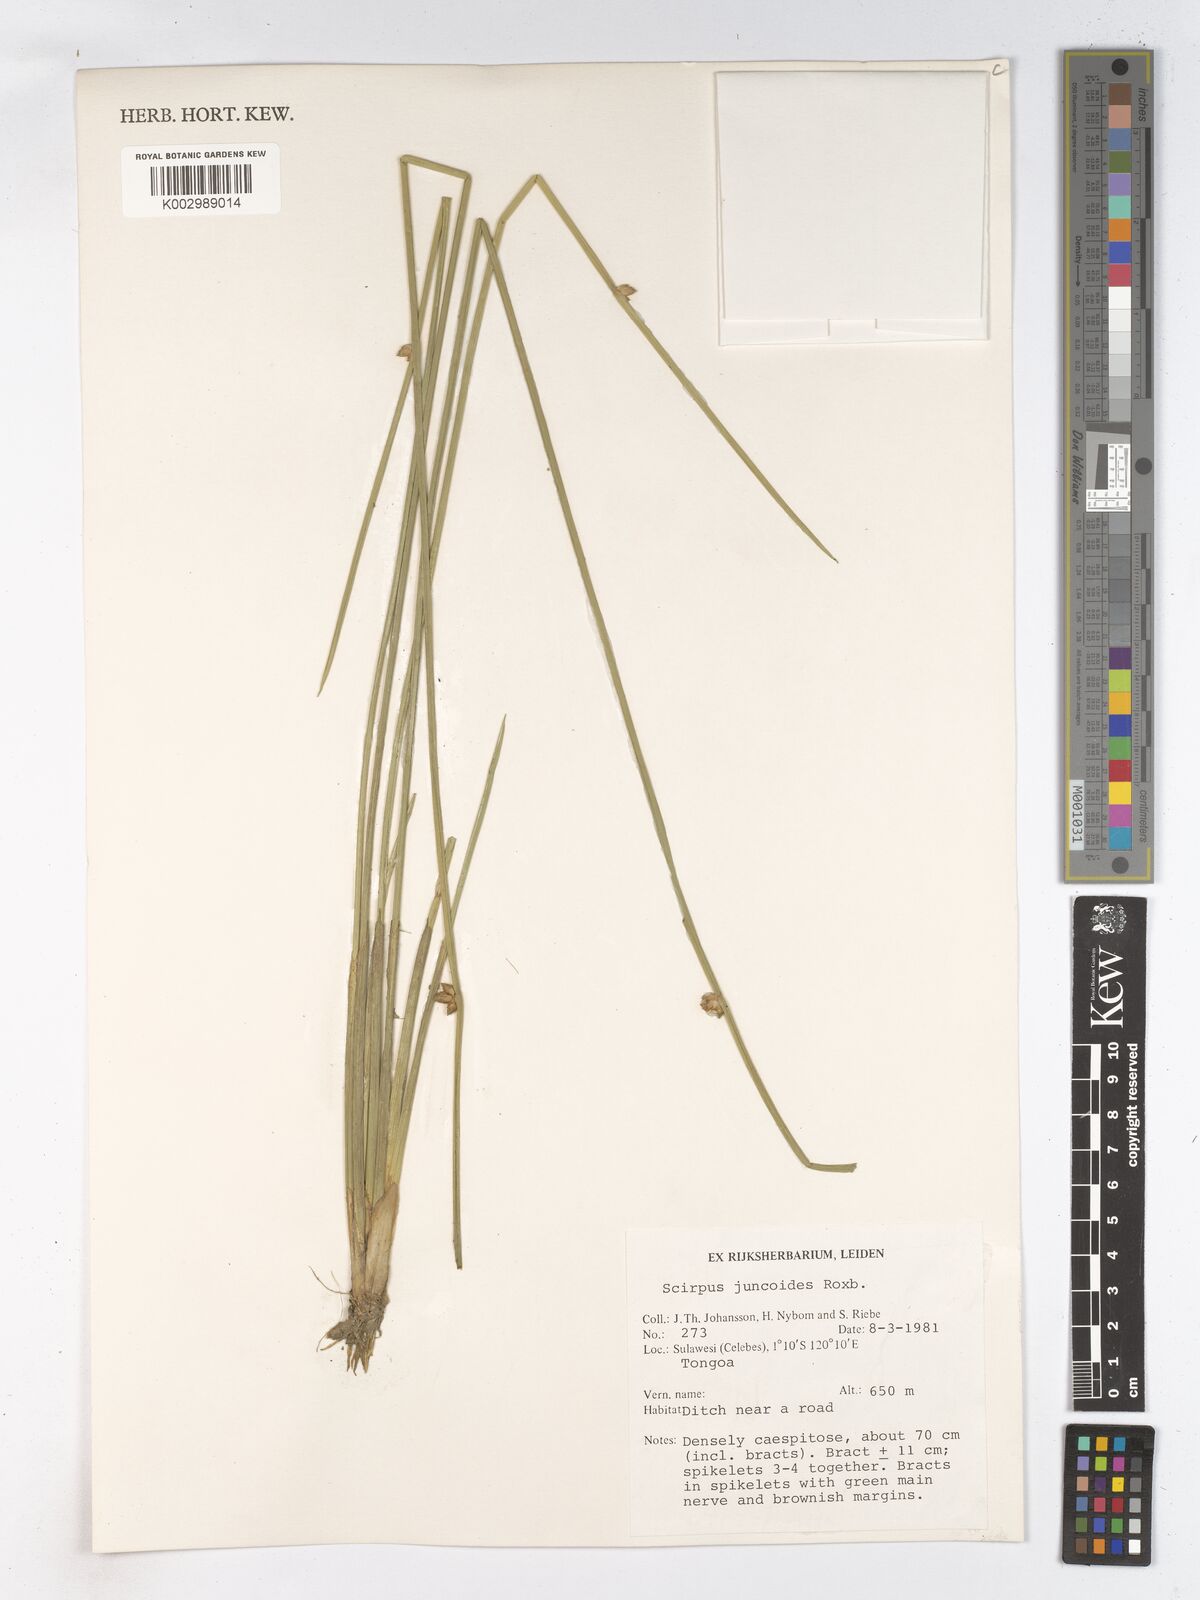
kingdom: Plantae
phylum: Tracheophyta
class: Liliopsida
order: Poales
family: Cyperaceae
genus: Schoenoplectiella
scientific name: Schoenoplectiella juncoides
